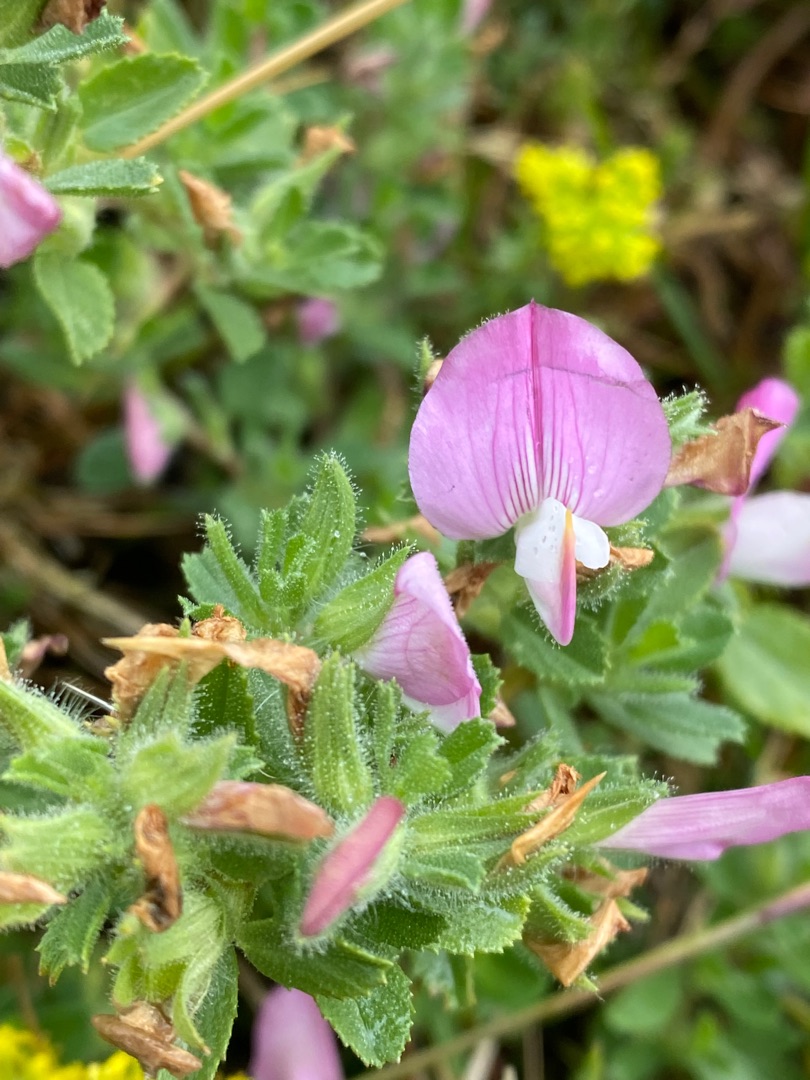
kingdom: Plantae
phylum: Tracheophyta
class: Magnoliopsida
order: Fabales
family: Fabaceae
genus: Ononis
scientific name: Ononis spinosa
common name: Mark-krageklo
